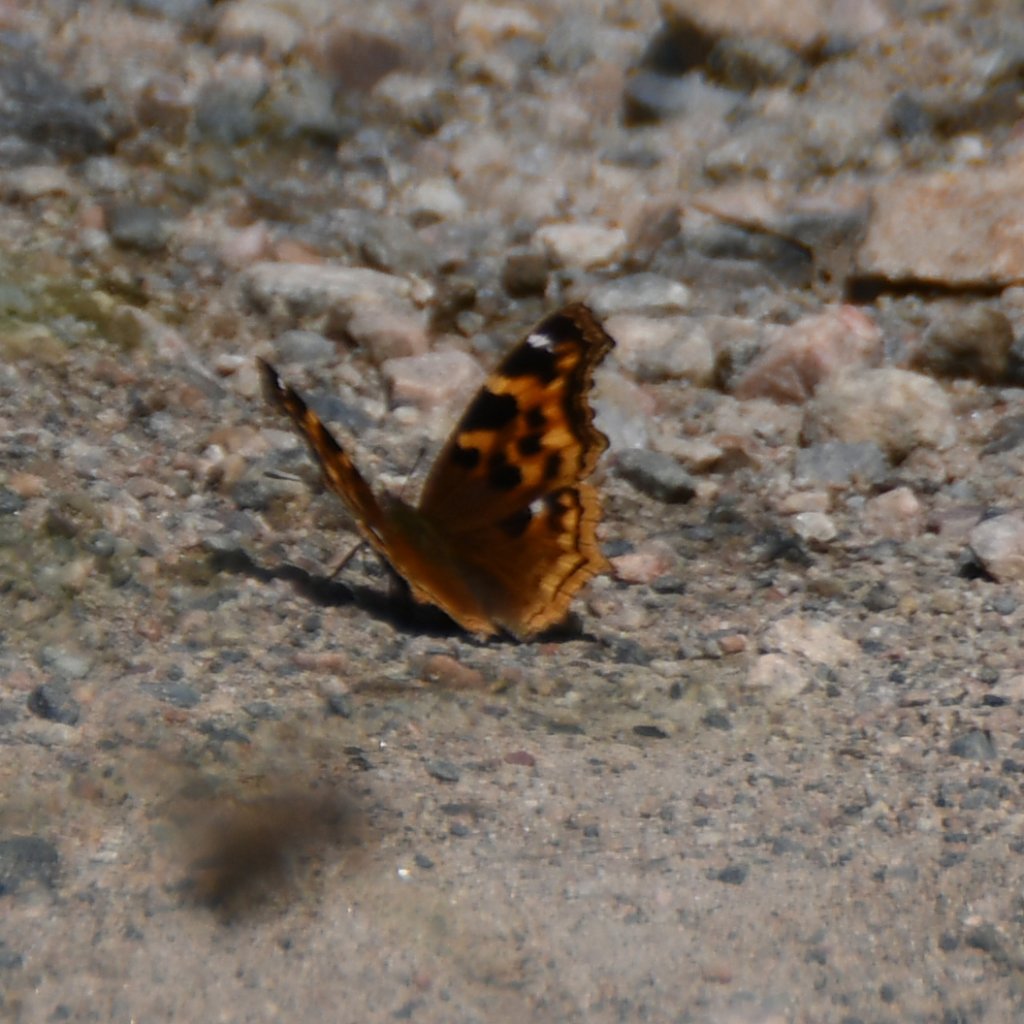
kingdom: Animalia
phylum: Arthropoda
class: Insecta
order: Lepidoptera
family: Nymphalidae
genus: Polygonia
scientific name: Polygonia vaualbum
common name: Compton Tortoiseshell
